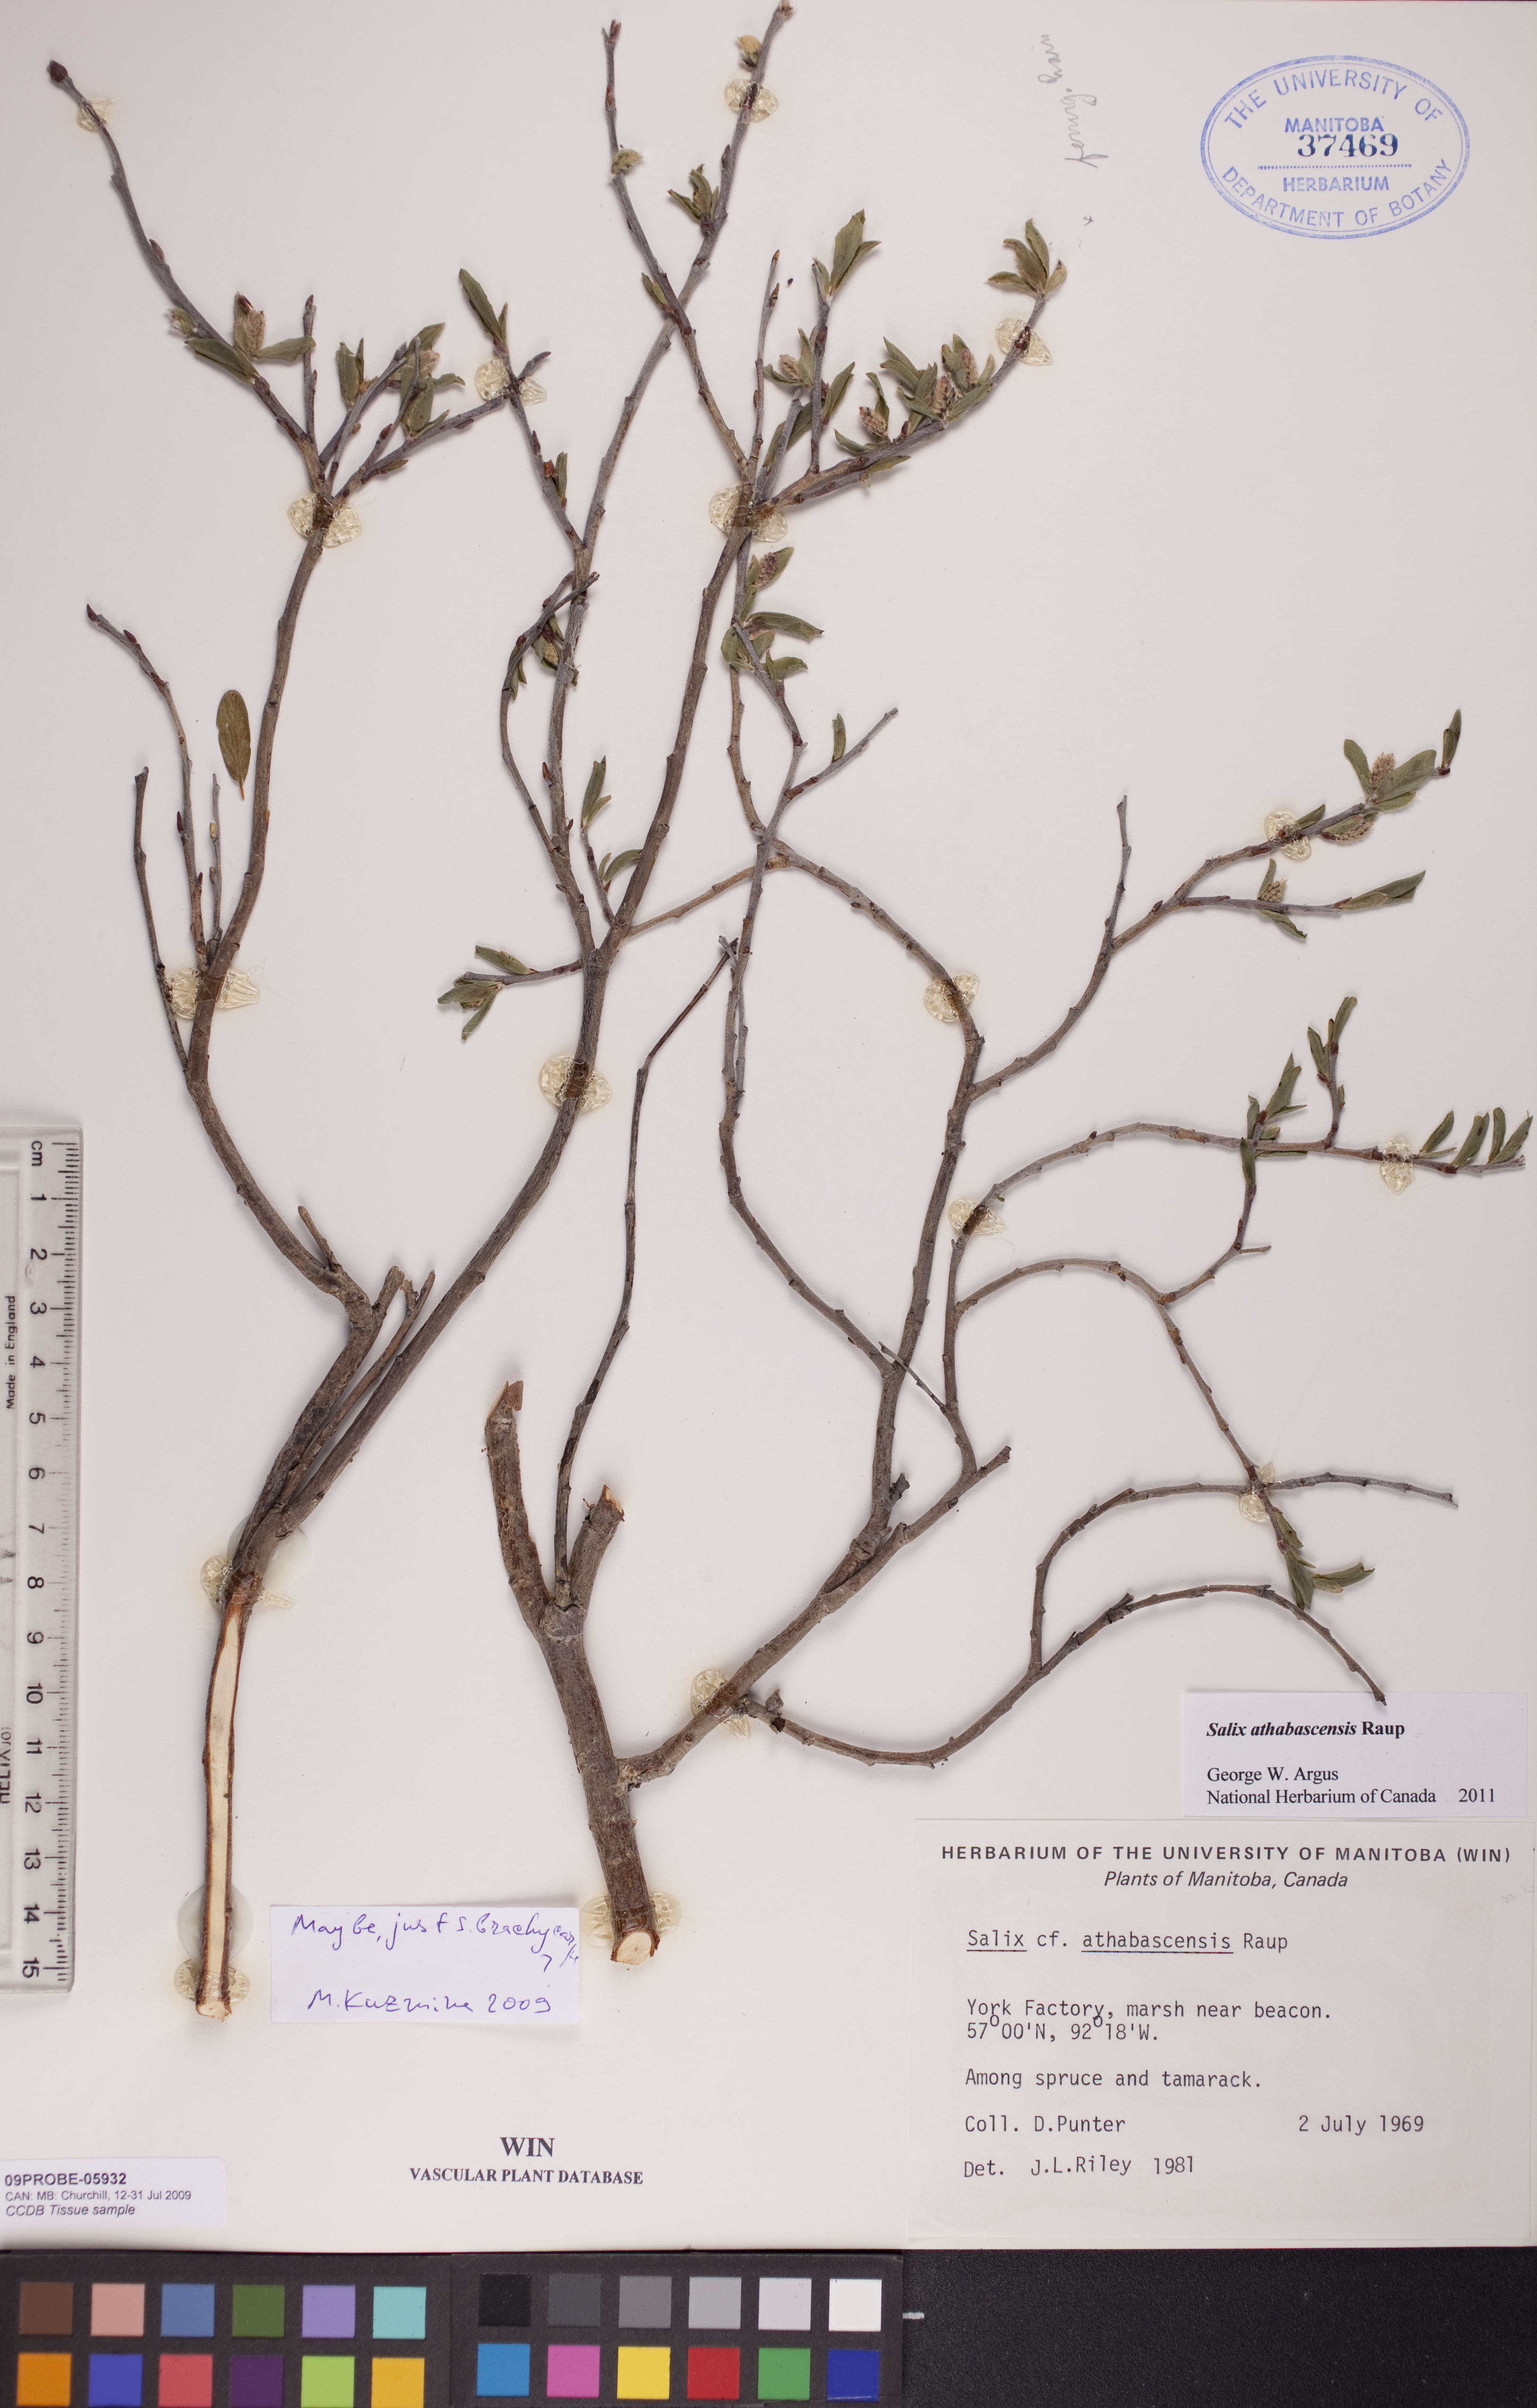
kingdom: Plantae
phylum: Tracheophyta
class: Magnoliopsida
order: Malpighiales
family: Salicaceae
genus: Salix
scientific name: Salix athabascensis
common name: Athabasca willow
